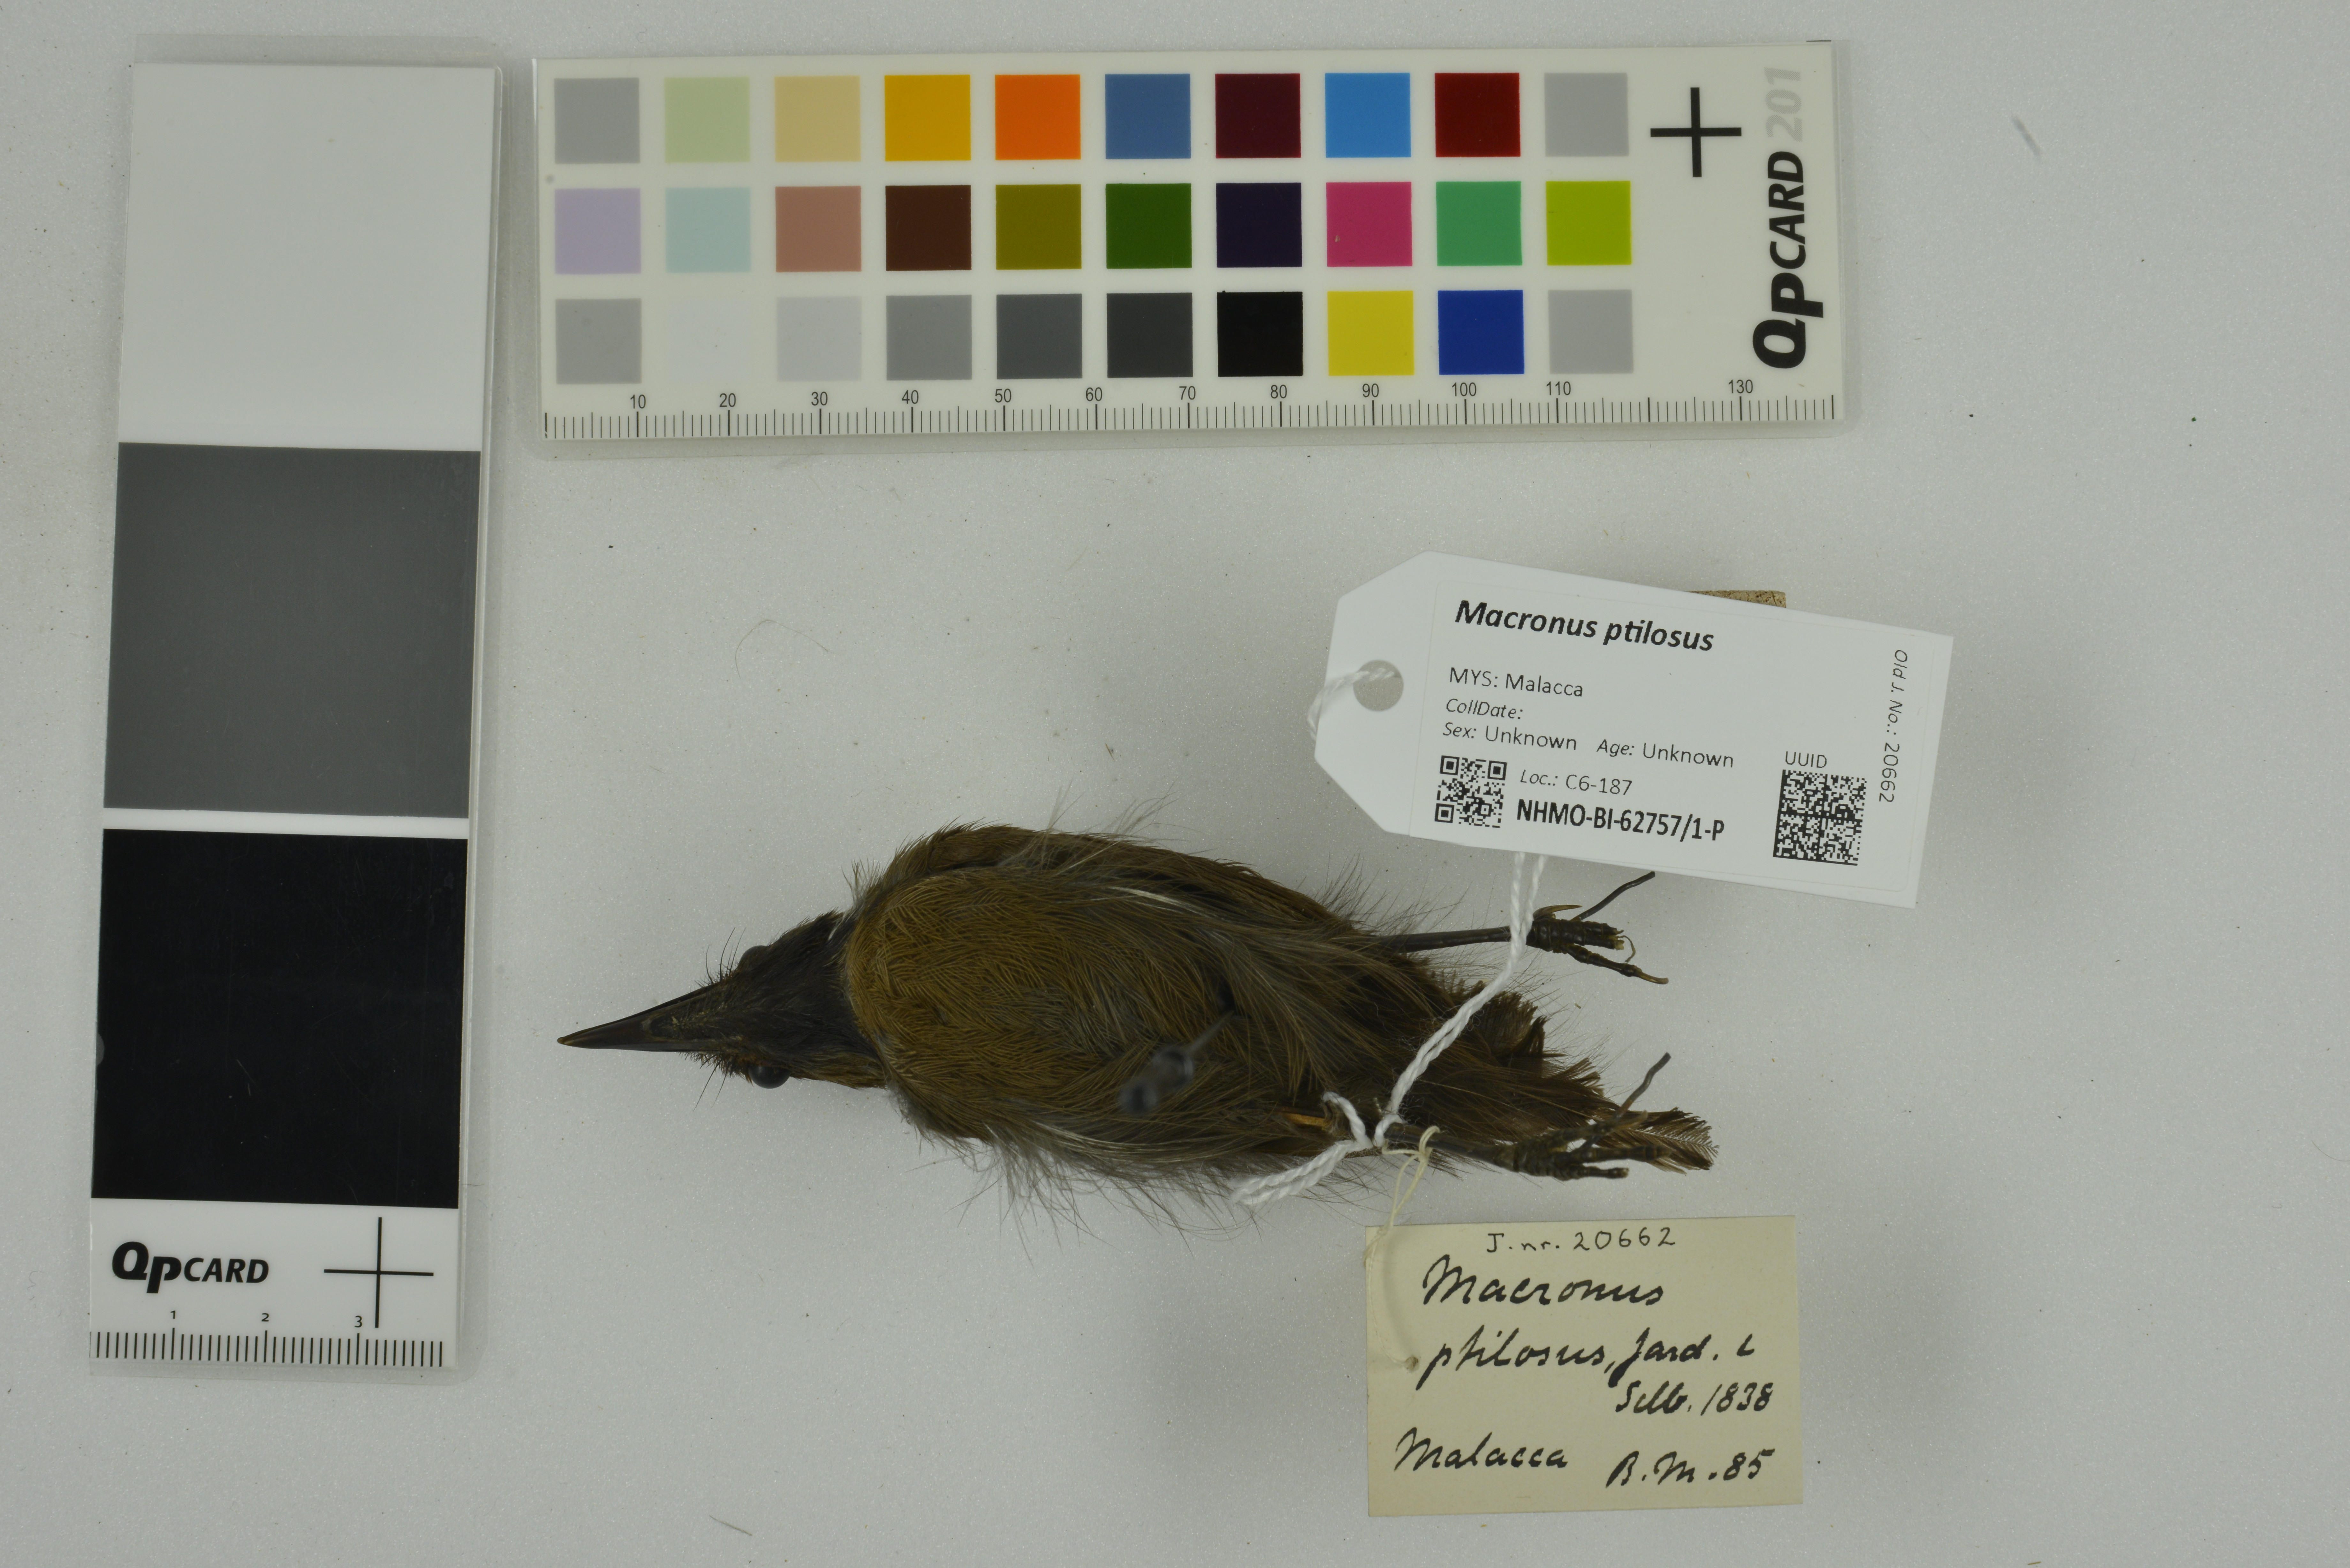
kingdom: Animalia
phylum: Chordata
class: Aves
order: Passeriformes
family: Timaliidae
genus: Macronus
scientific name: Macronus ptilosus
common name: Fluffy-backed tit-babbler
